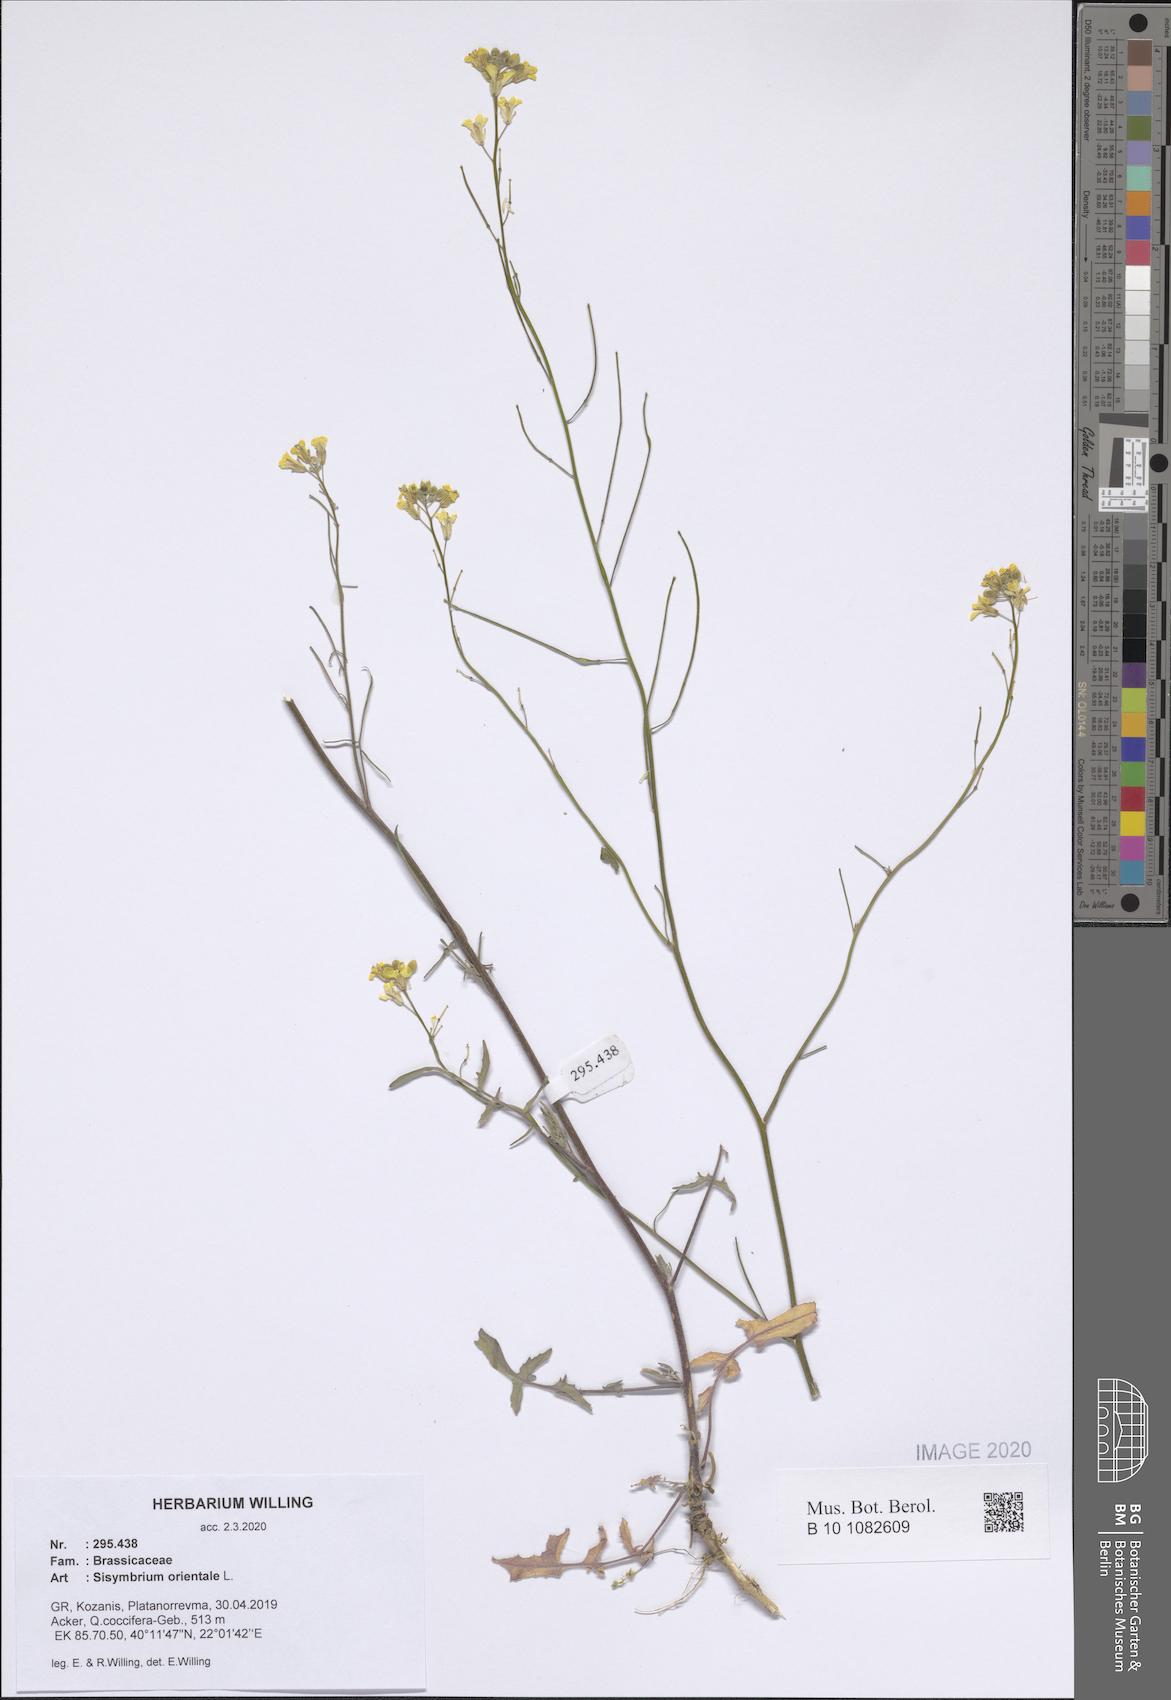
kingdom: Plantae
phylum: Tracheophyta
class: Magnoliopsida
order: Brassicales
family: Brassicaceae
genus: Sisymbrium
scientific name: Sisymbrium orientale
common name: Eastern rocket
